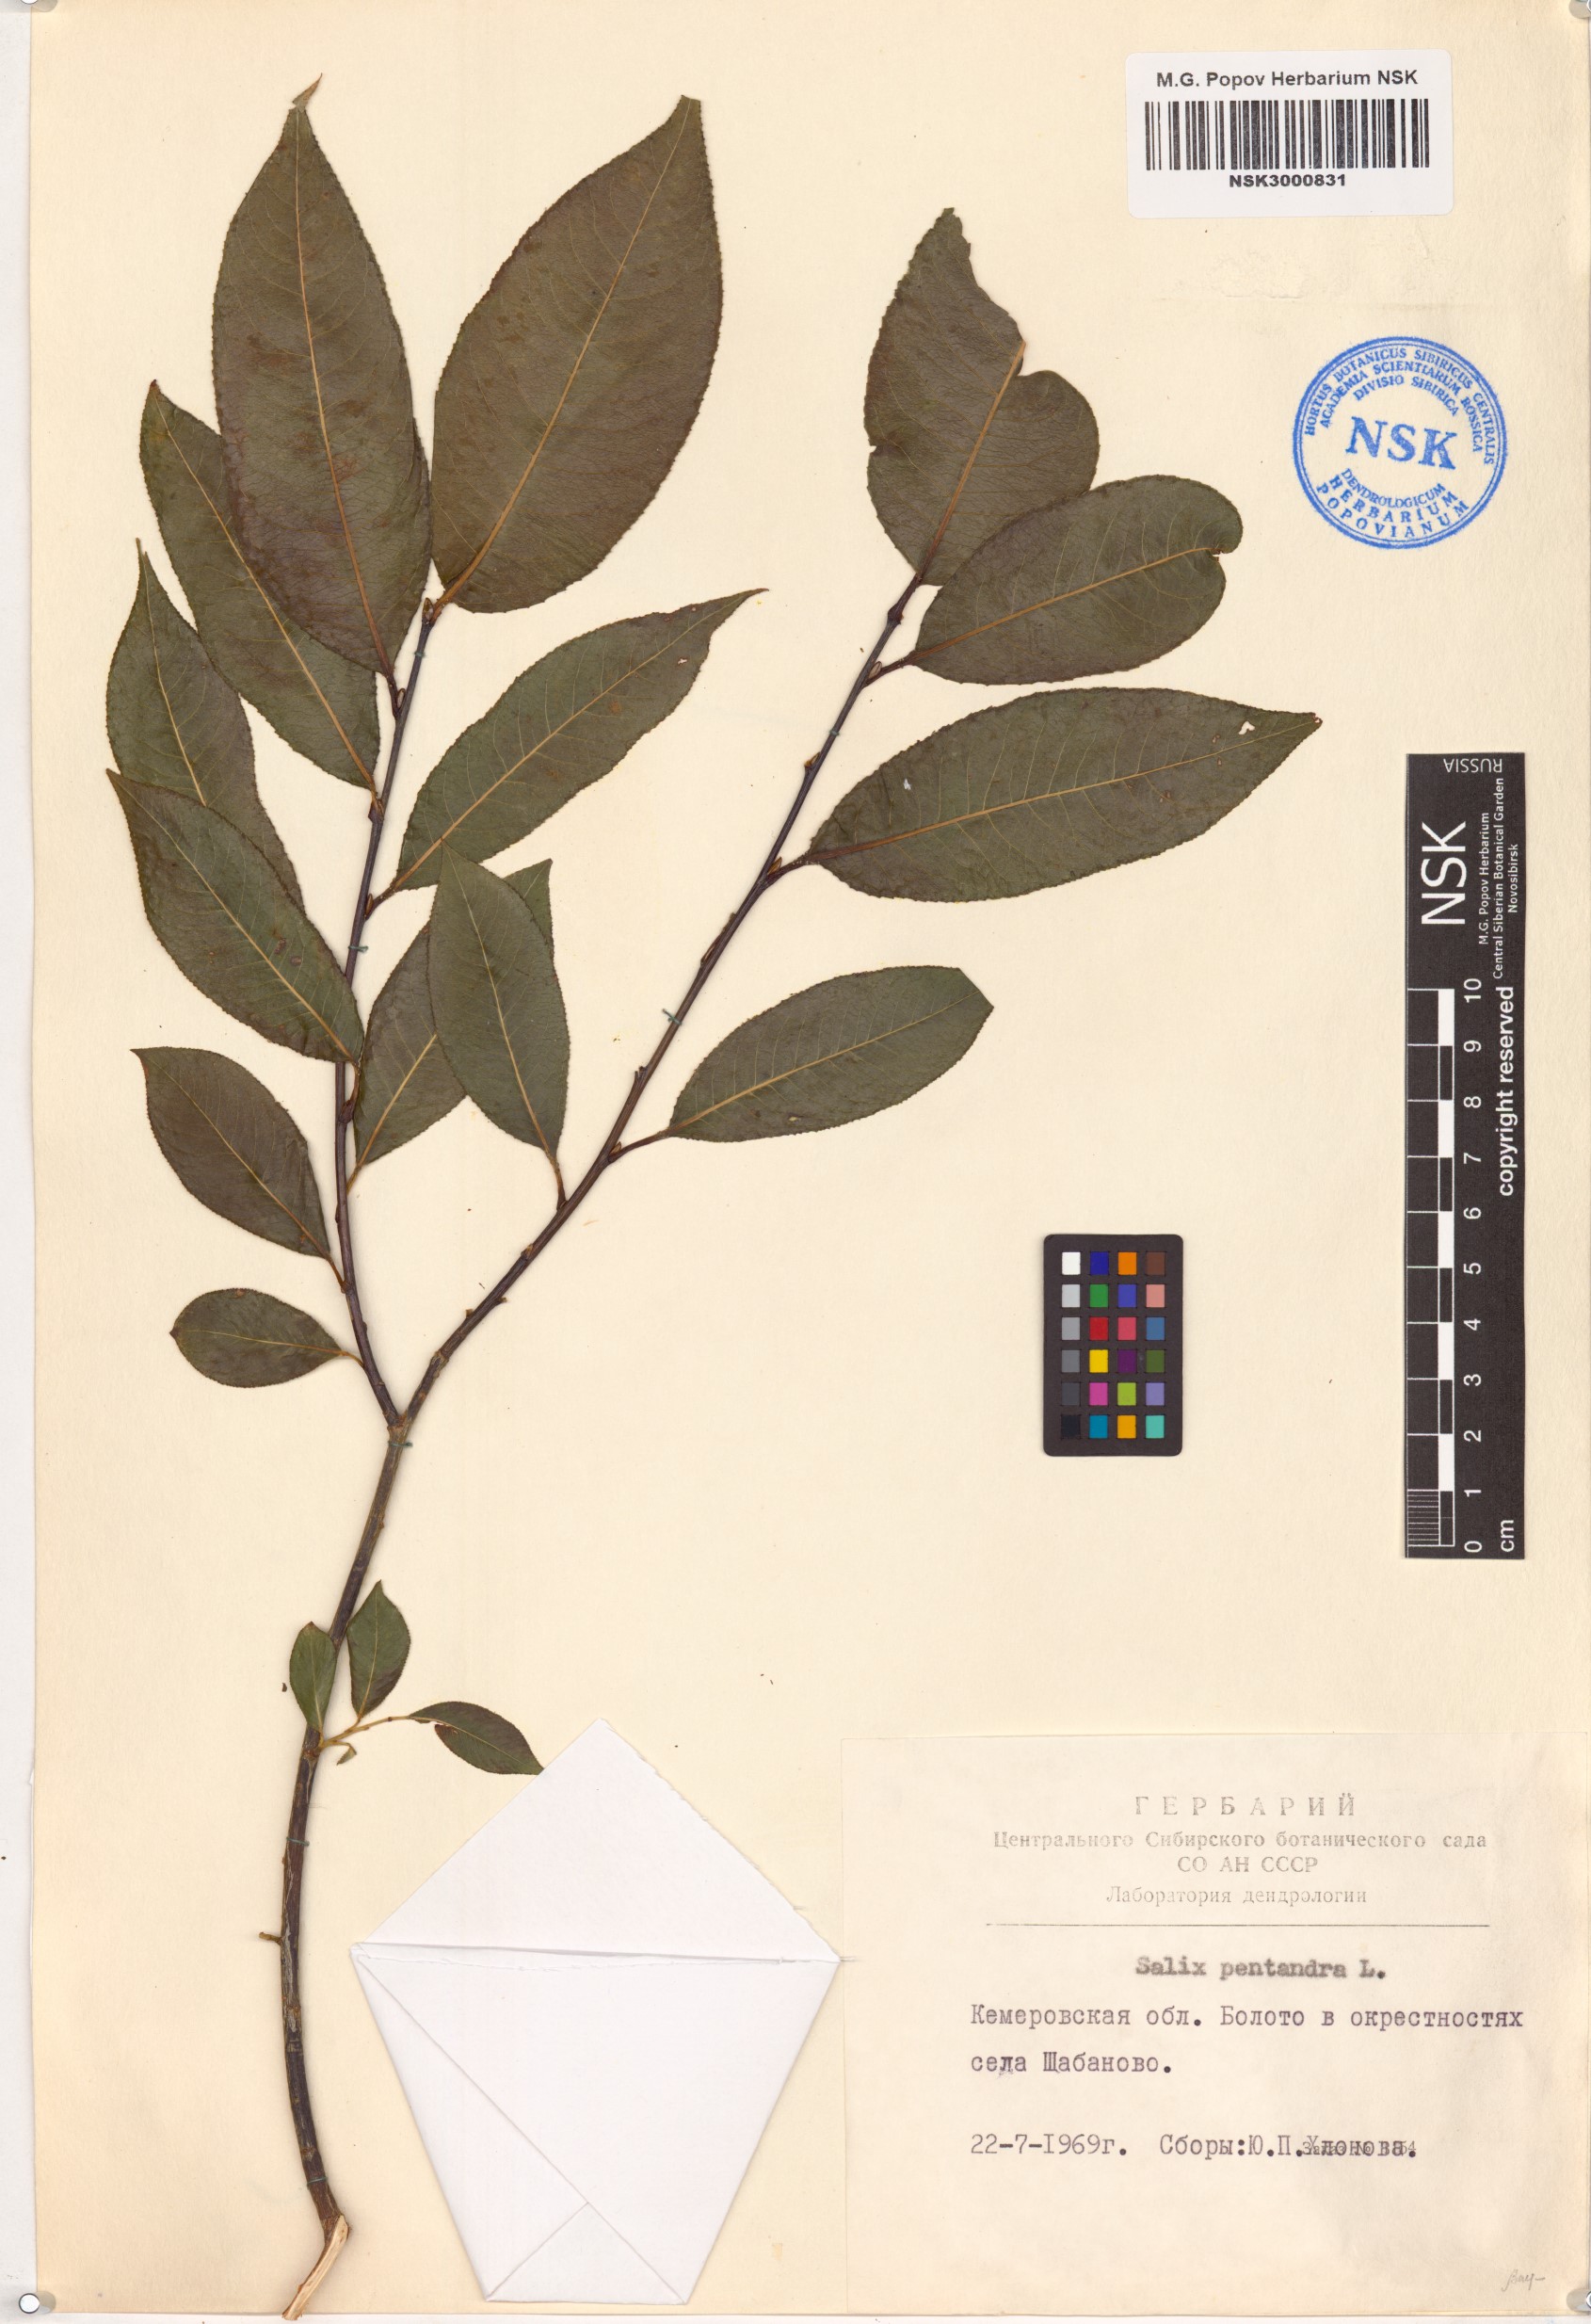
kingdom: Plantae
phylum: Tracheophyta
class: Magnoliopsida
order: Malpighiales
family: Salicaceae
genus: Salix
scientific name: Salix pentandra
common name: Bay willow
